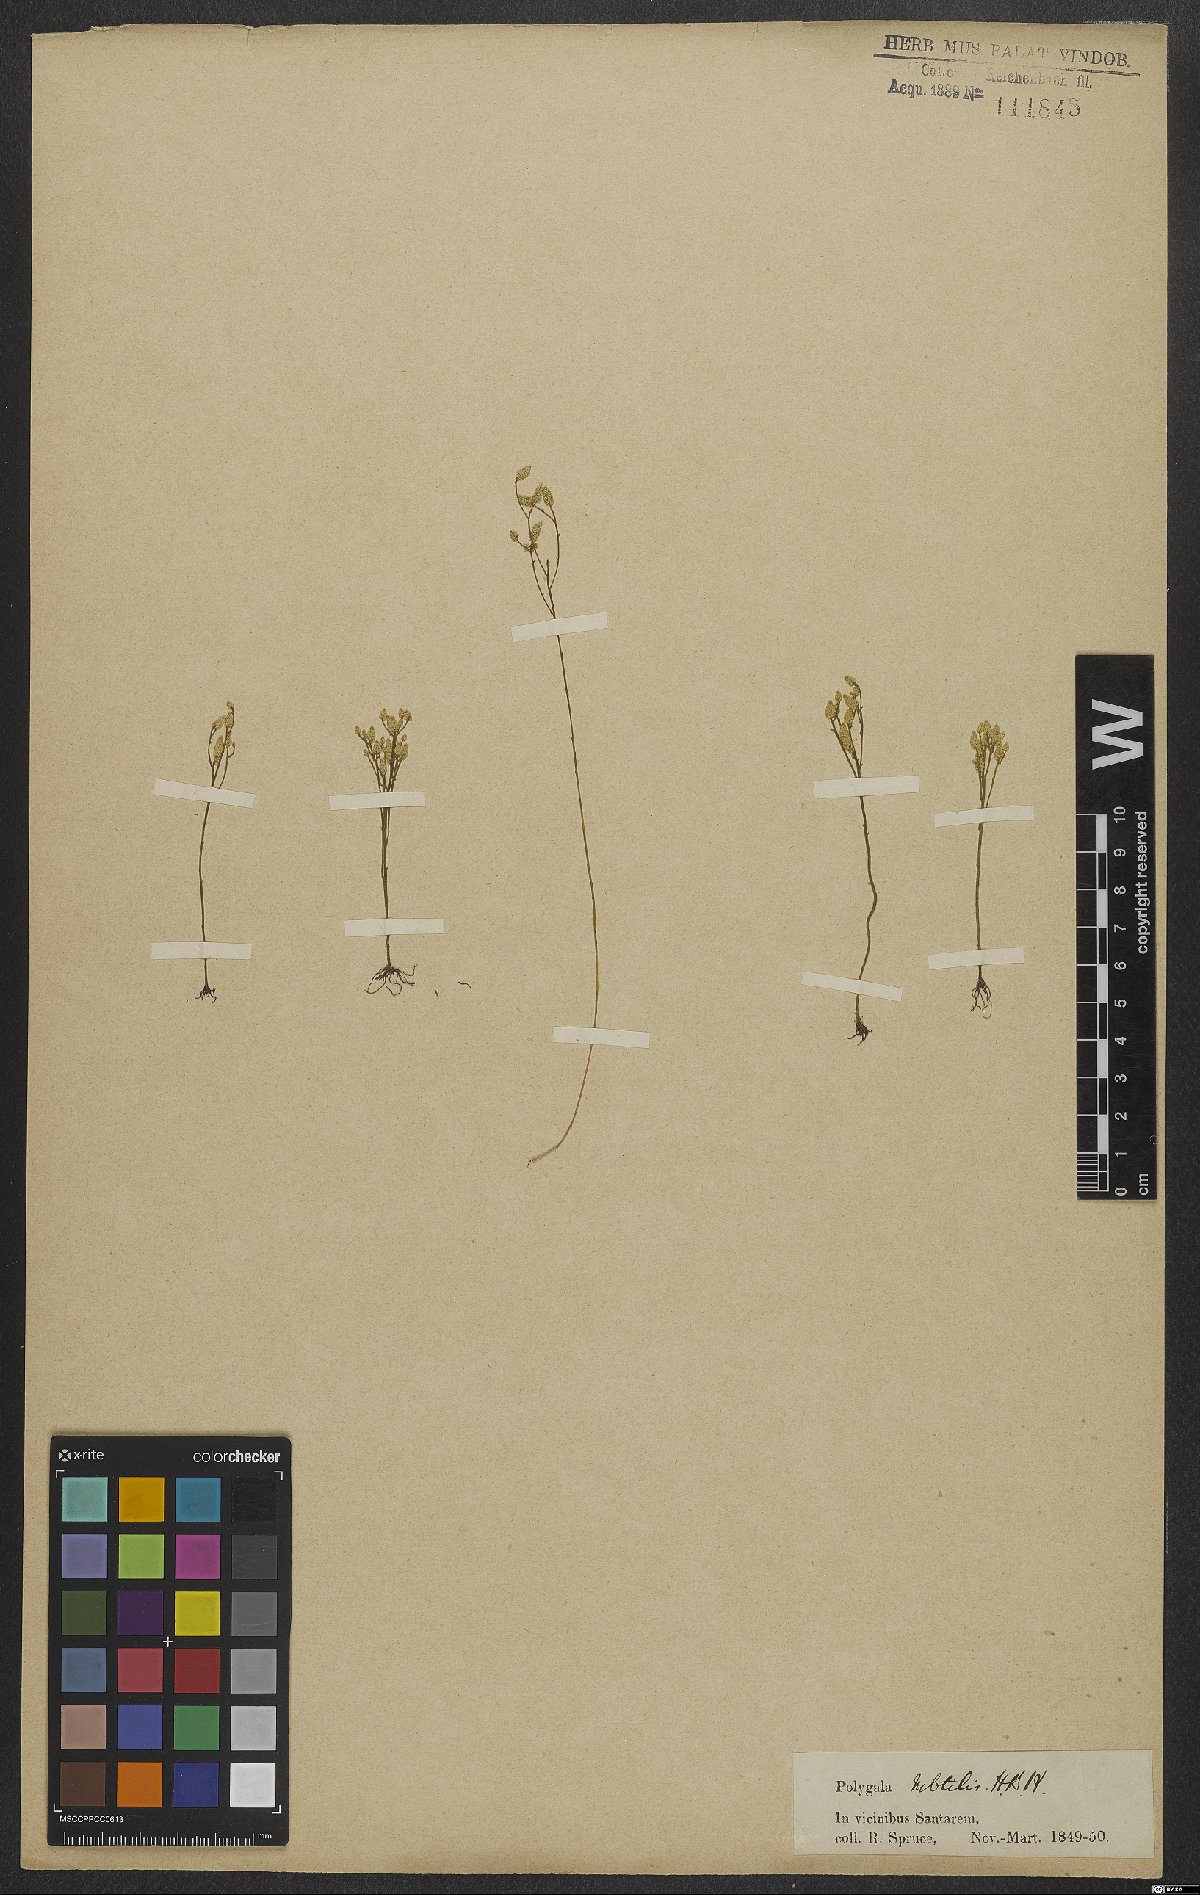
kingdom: Plantae
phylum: Tracheophyta
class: Magnoliopsida
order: Fabales
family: Polygalaceae
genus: Polygala
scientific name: Polygala subtilis
